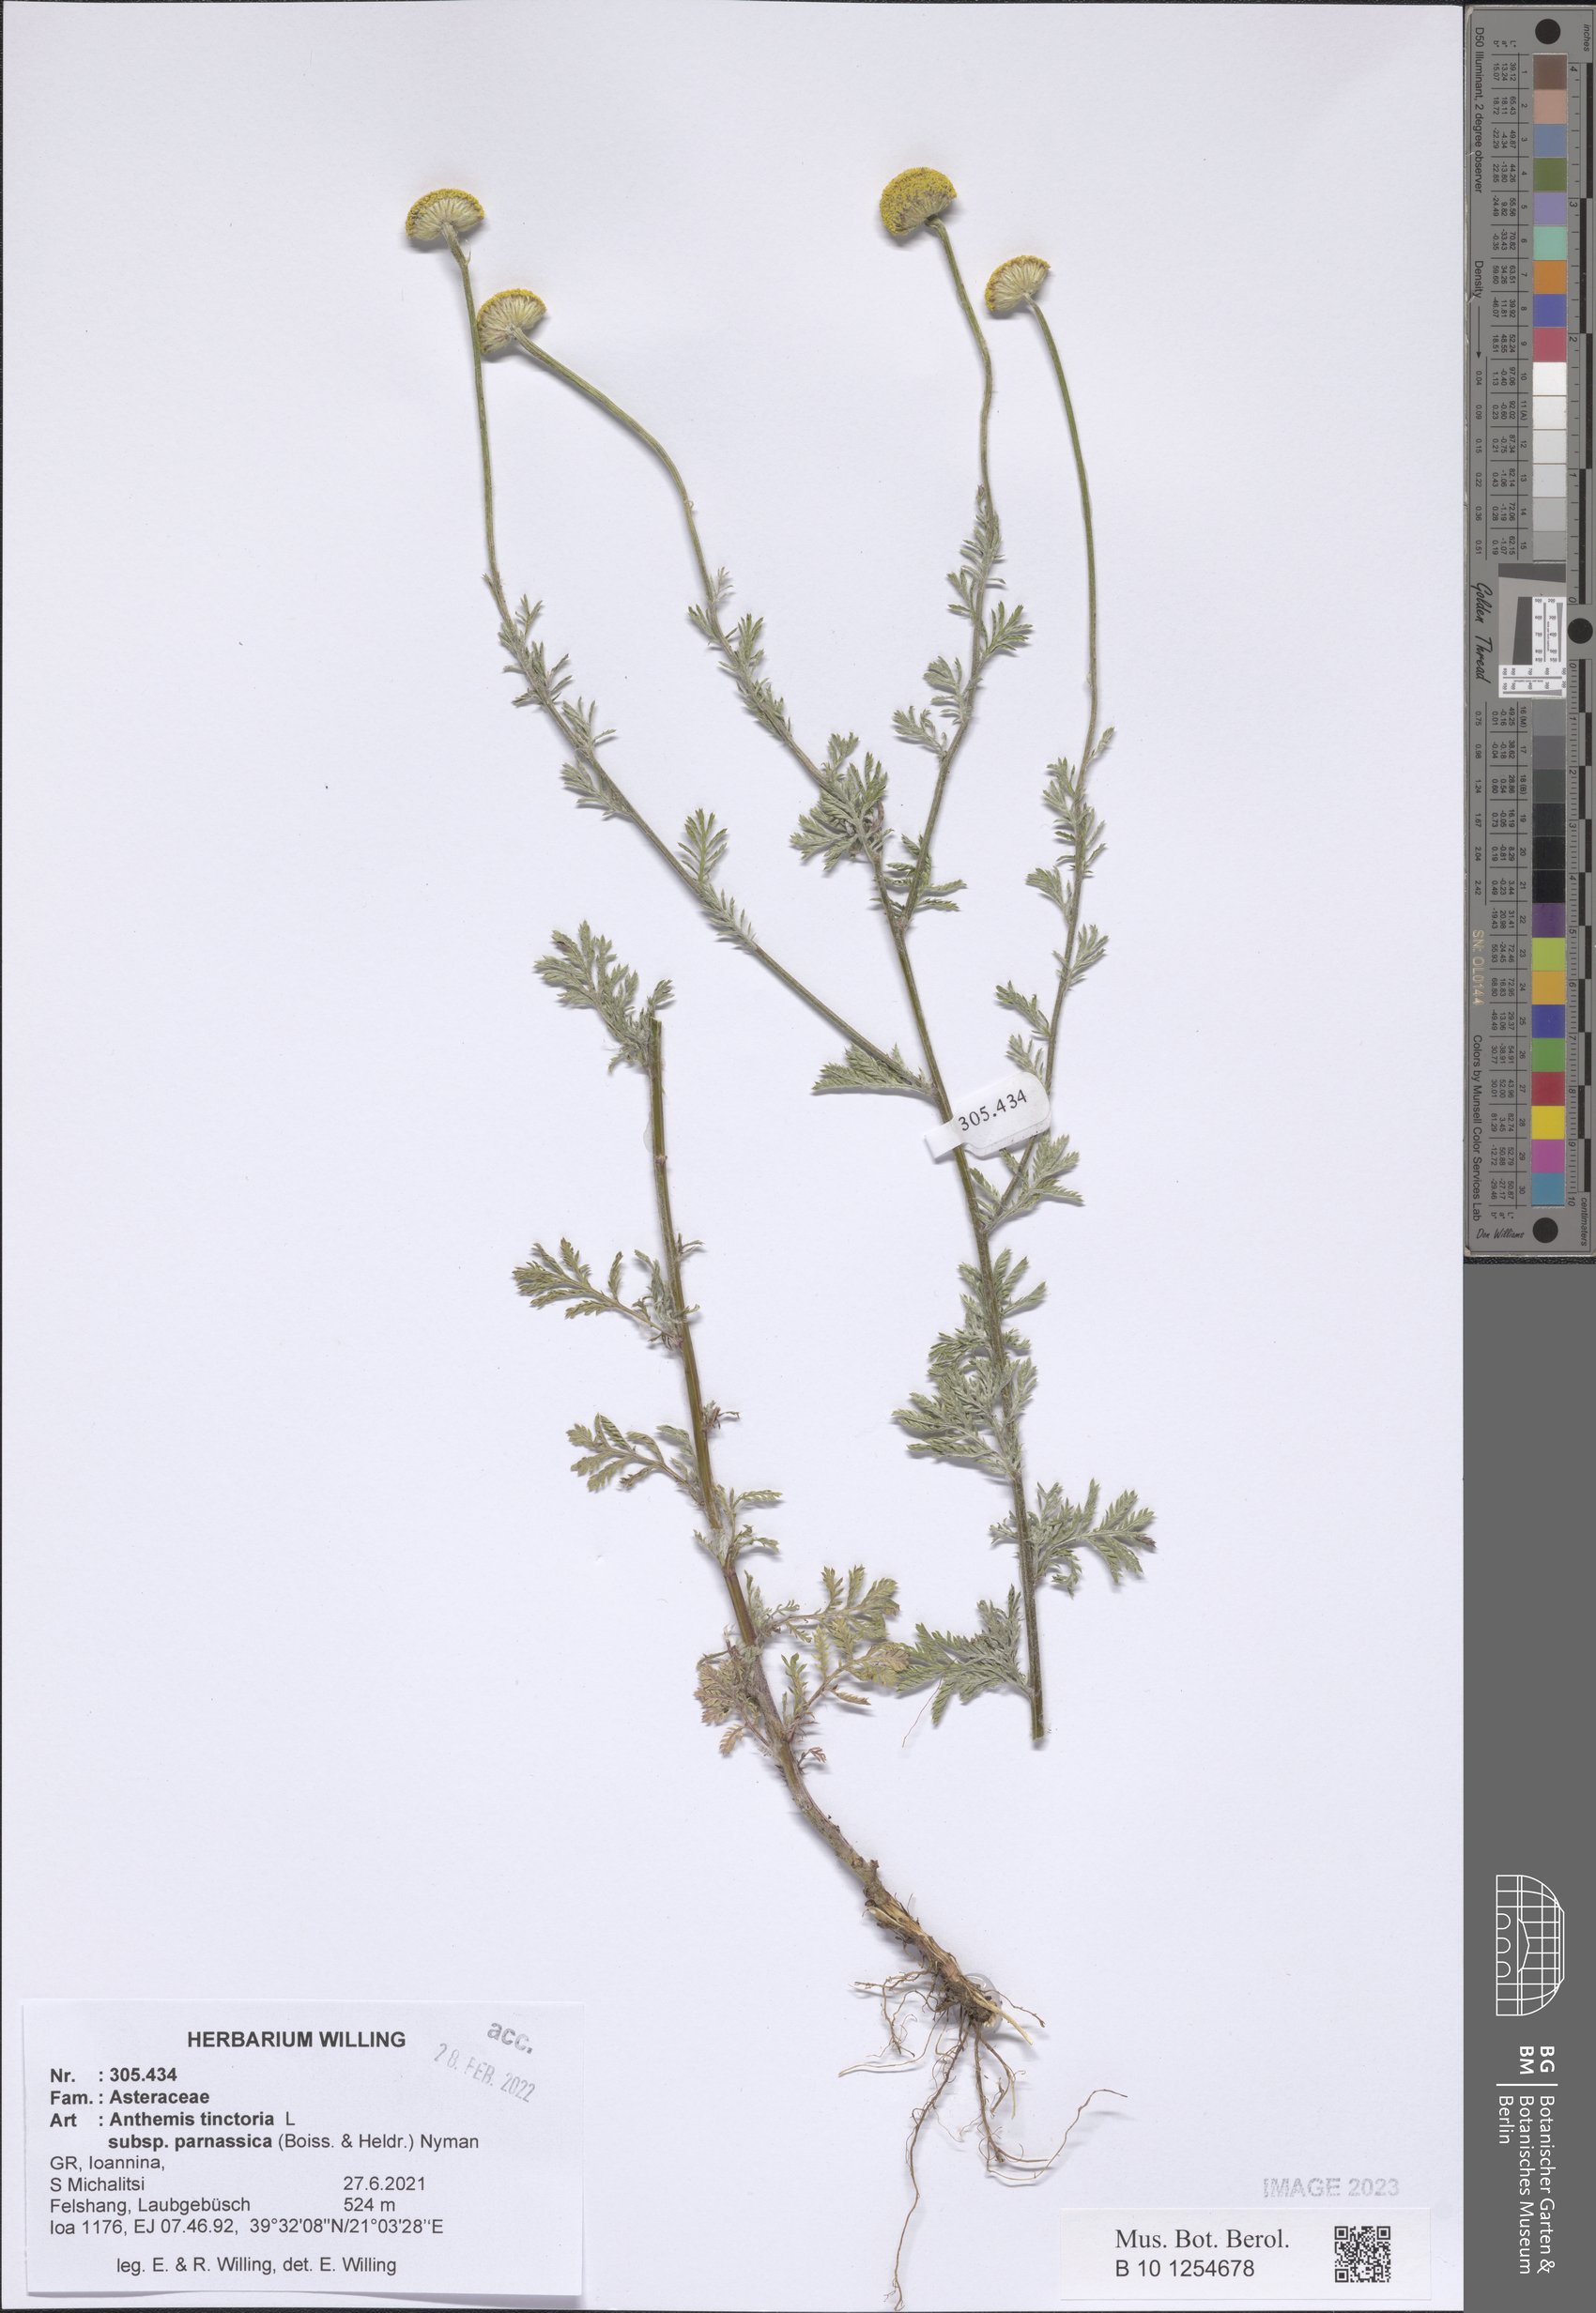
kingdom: Plantae
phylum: Tracheophyta
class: Magnoliopsida
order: Asterales
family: Asteraceae
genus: Cota
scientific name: Cota tinctoria
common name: Golden chamomile
